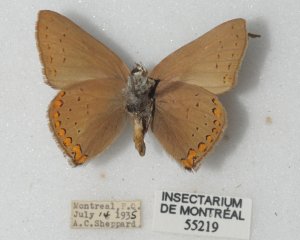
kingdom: Animalia
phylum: Arthropoda
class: Insecta
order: Lepidoptera
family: Lycaenidae
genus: Harkenclenus
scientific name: Harkenclenus titus
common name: Coral Hairstreak
